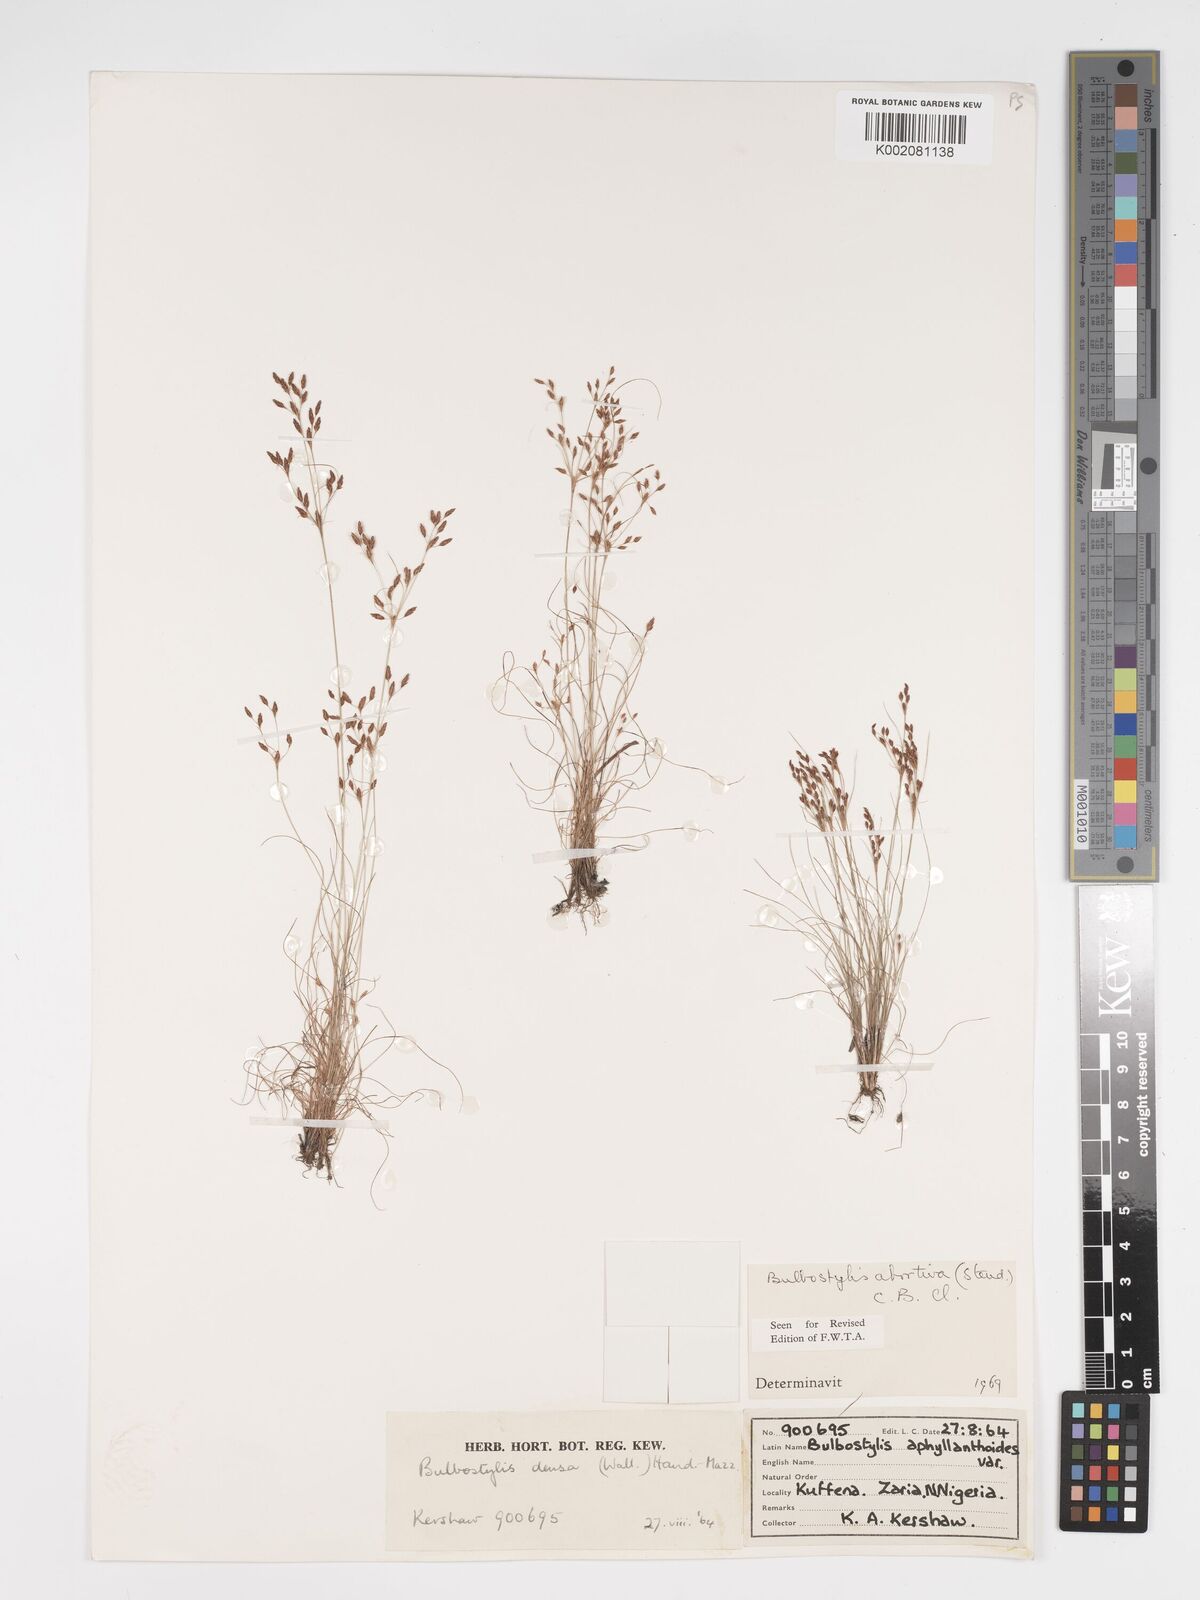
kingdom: Plantae
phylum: Tracheophyta
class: Liliopsida
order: Poales
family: Cyperaceae
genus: Bulbostylis
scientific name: Bulbostylis abortiva
